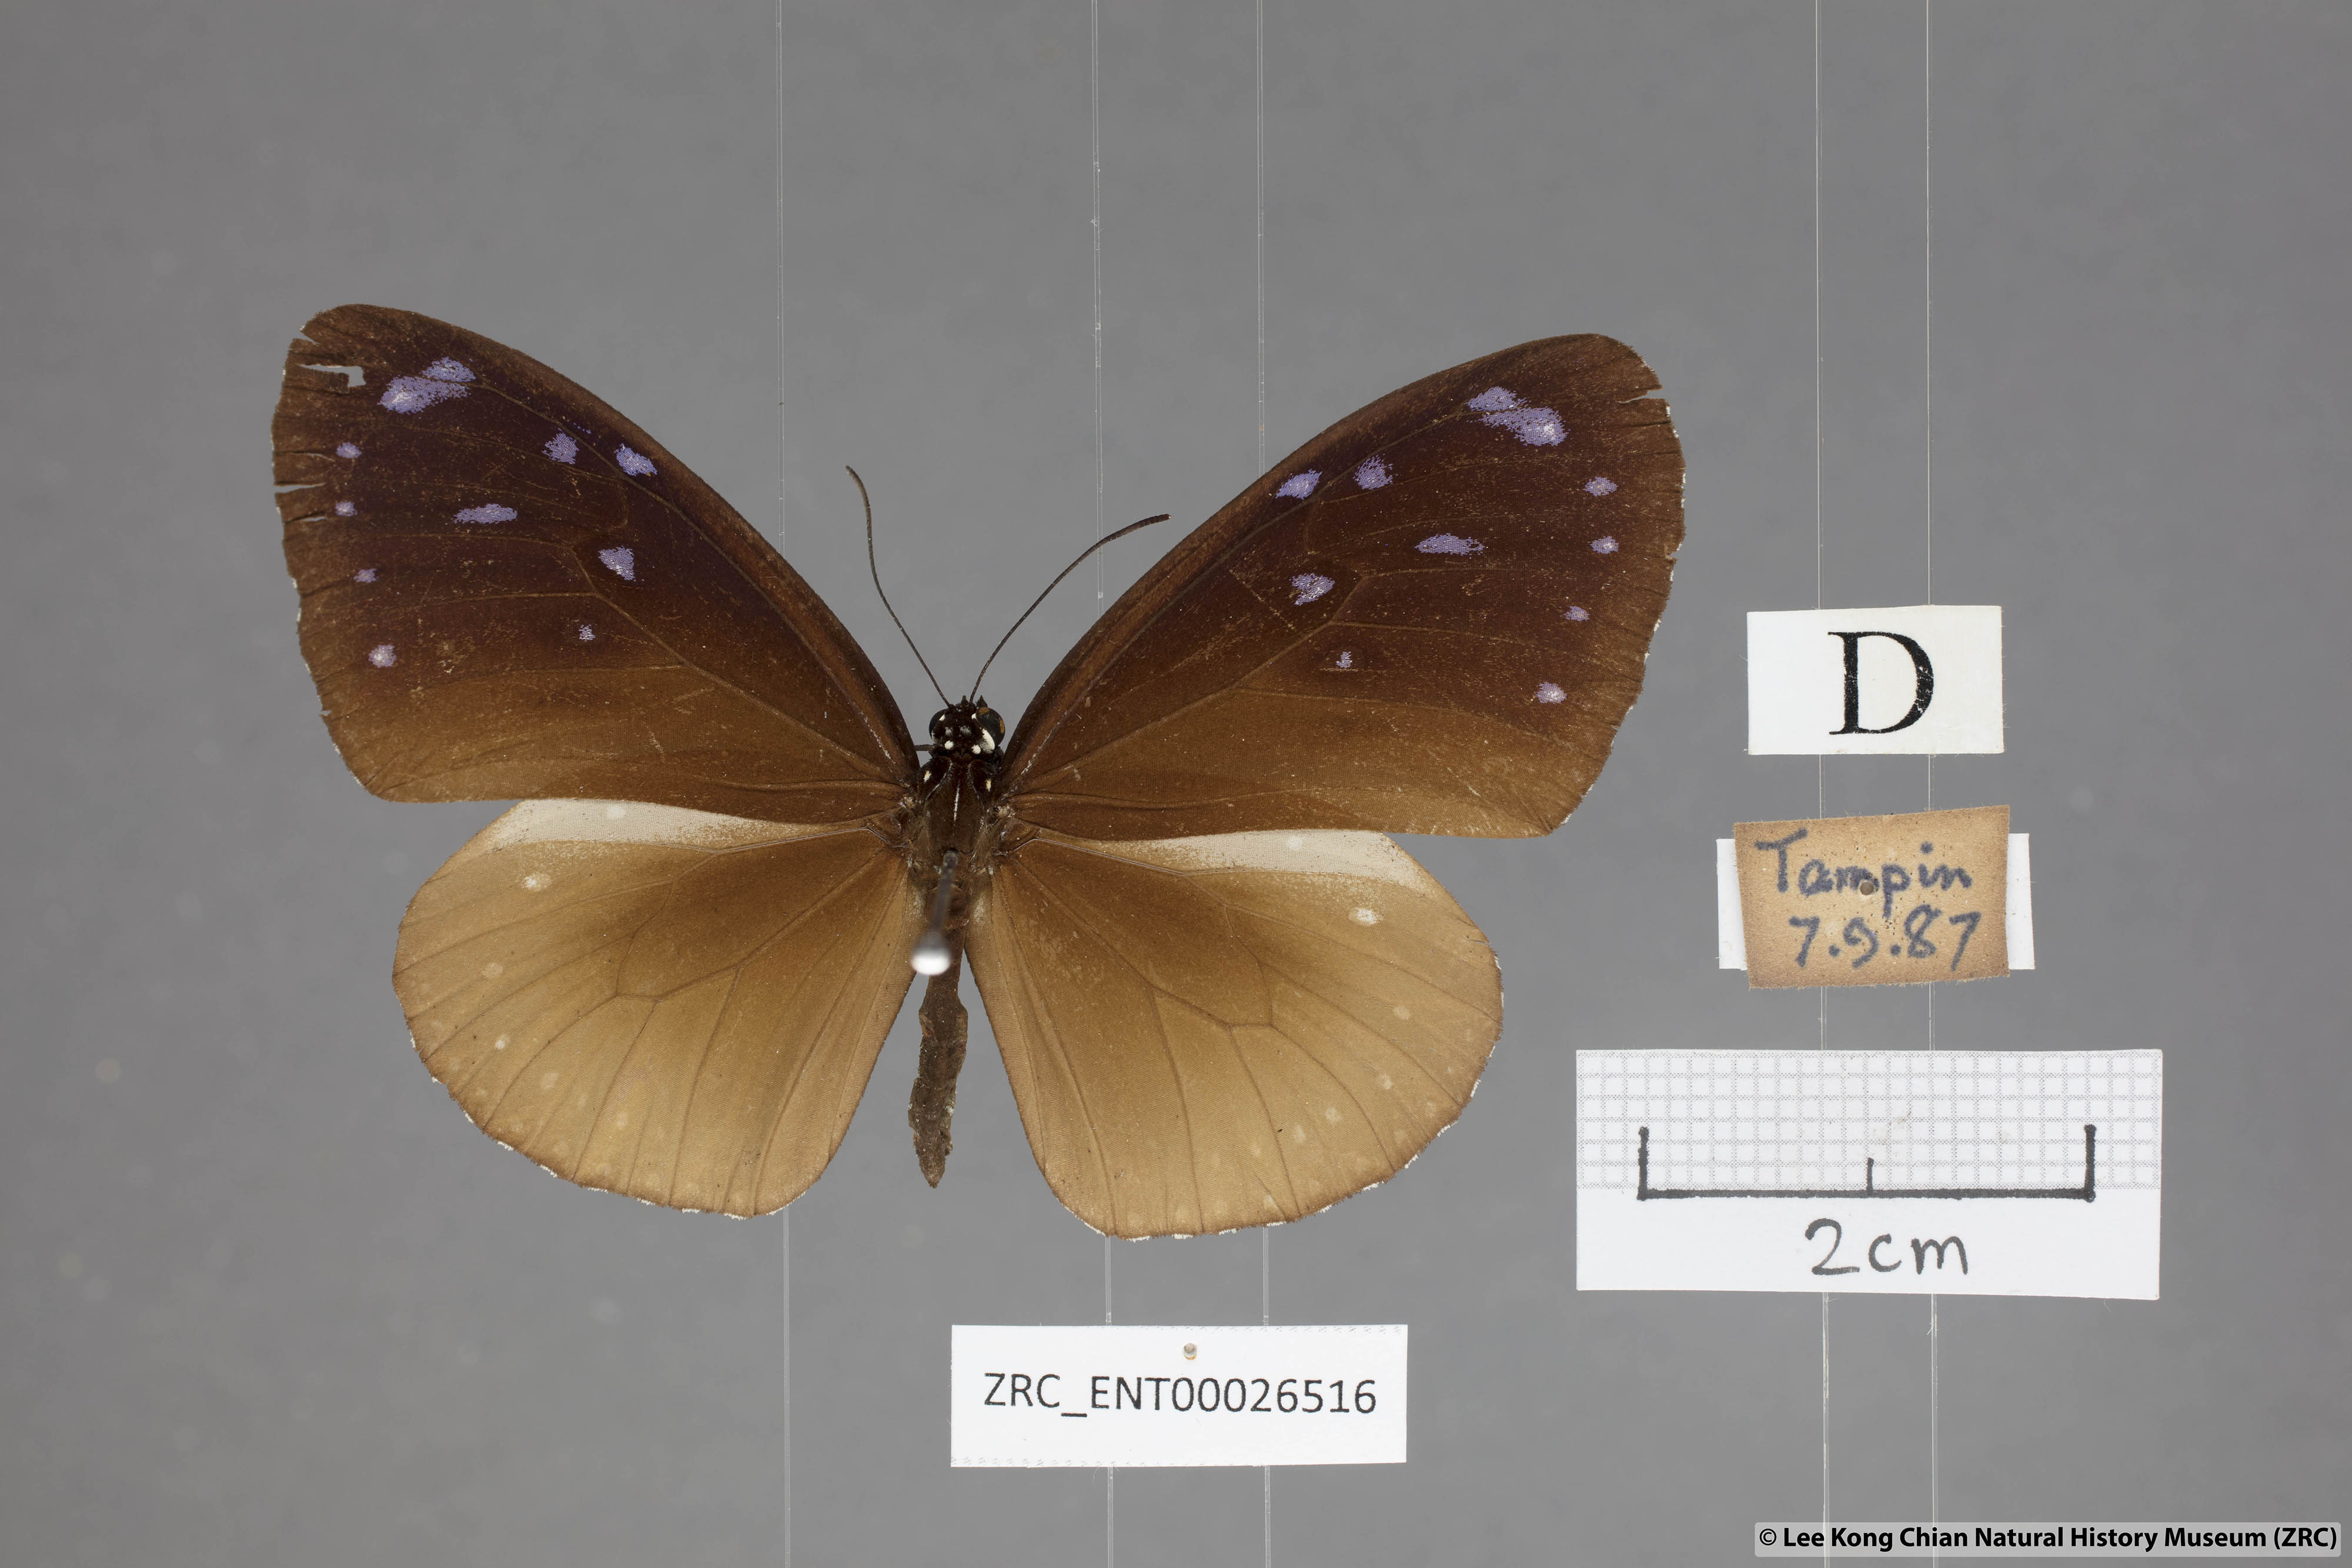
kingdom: Animalia
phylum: Arthropoda
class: Insecta
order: Lepidoptera
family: Nymphalidae
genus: Euploea
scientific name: Euploea tulliolus
